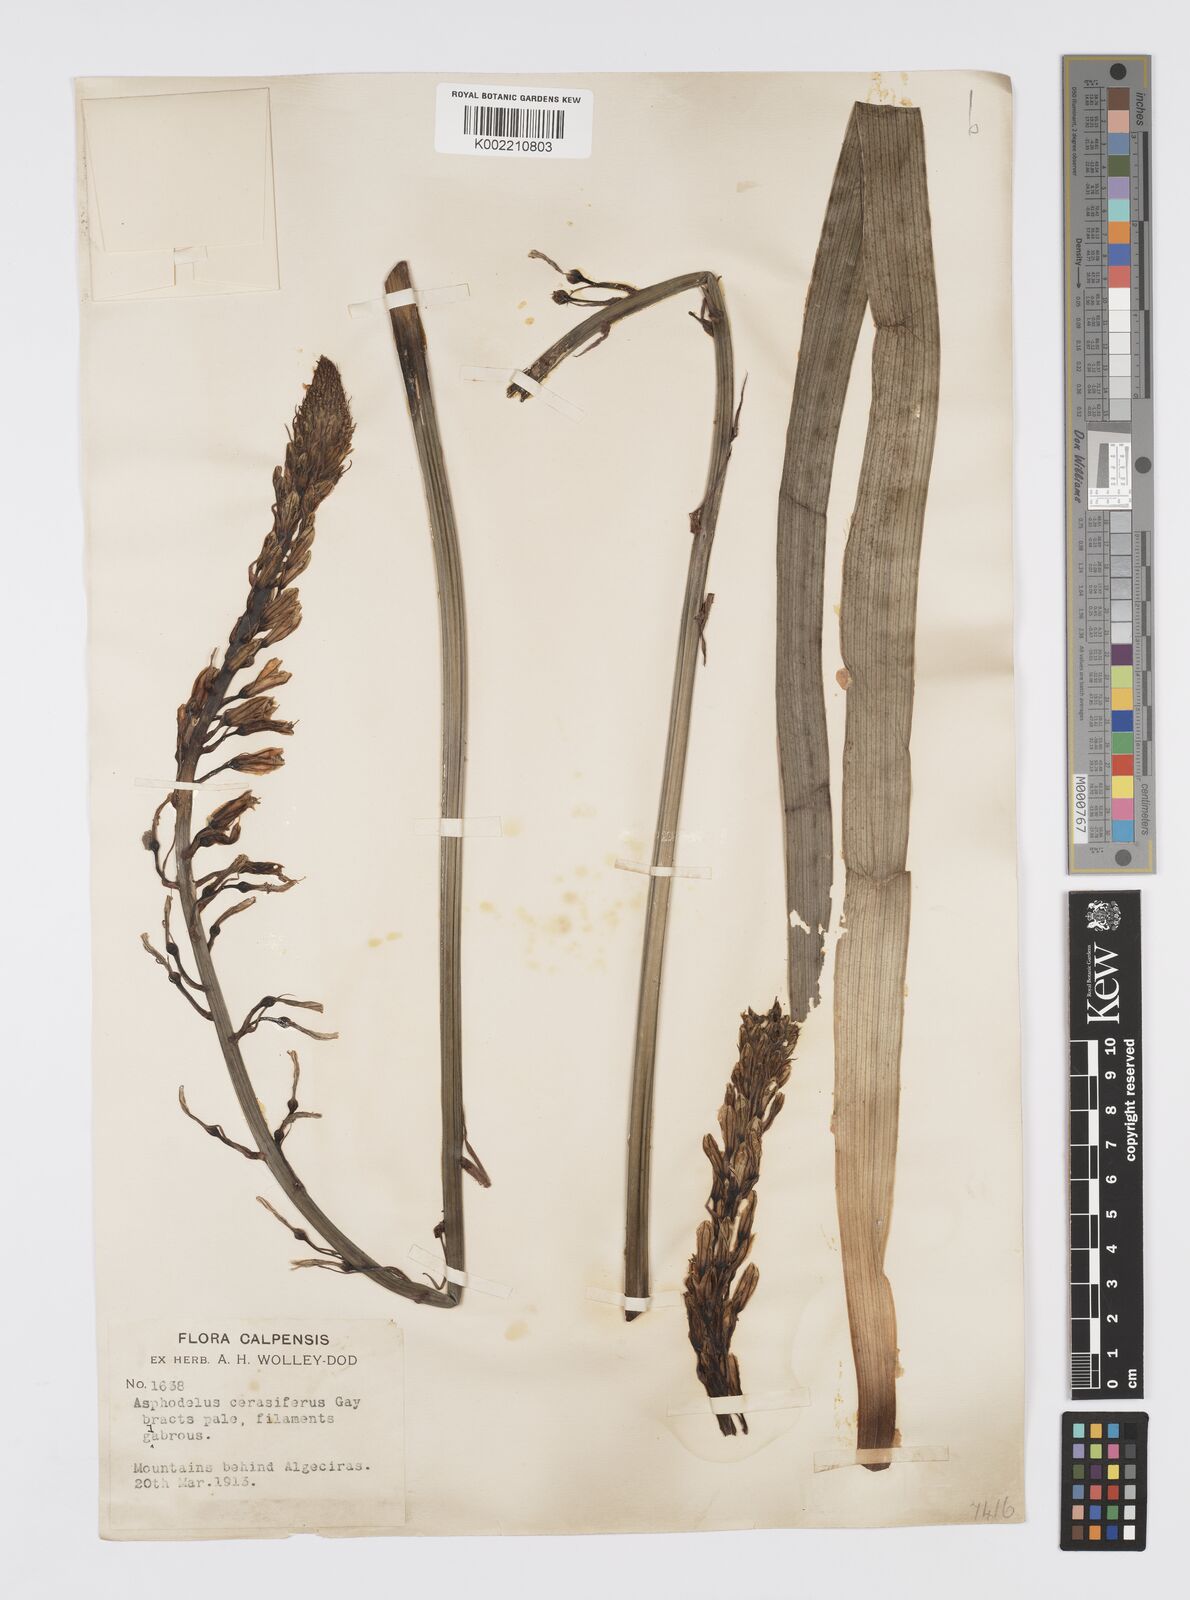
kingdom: Plantae
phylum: Tracheophyta
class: Liliopsida
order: Asparagales
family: Asphodelaceae
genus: Asphodelus
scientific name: Asphodelus cerasifer
